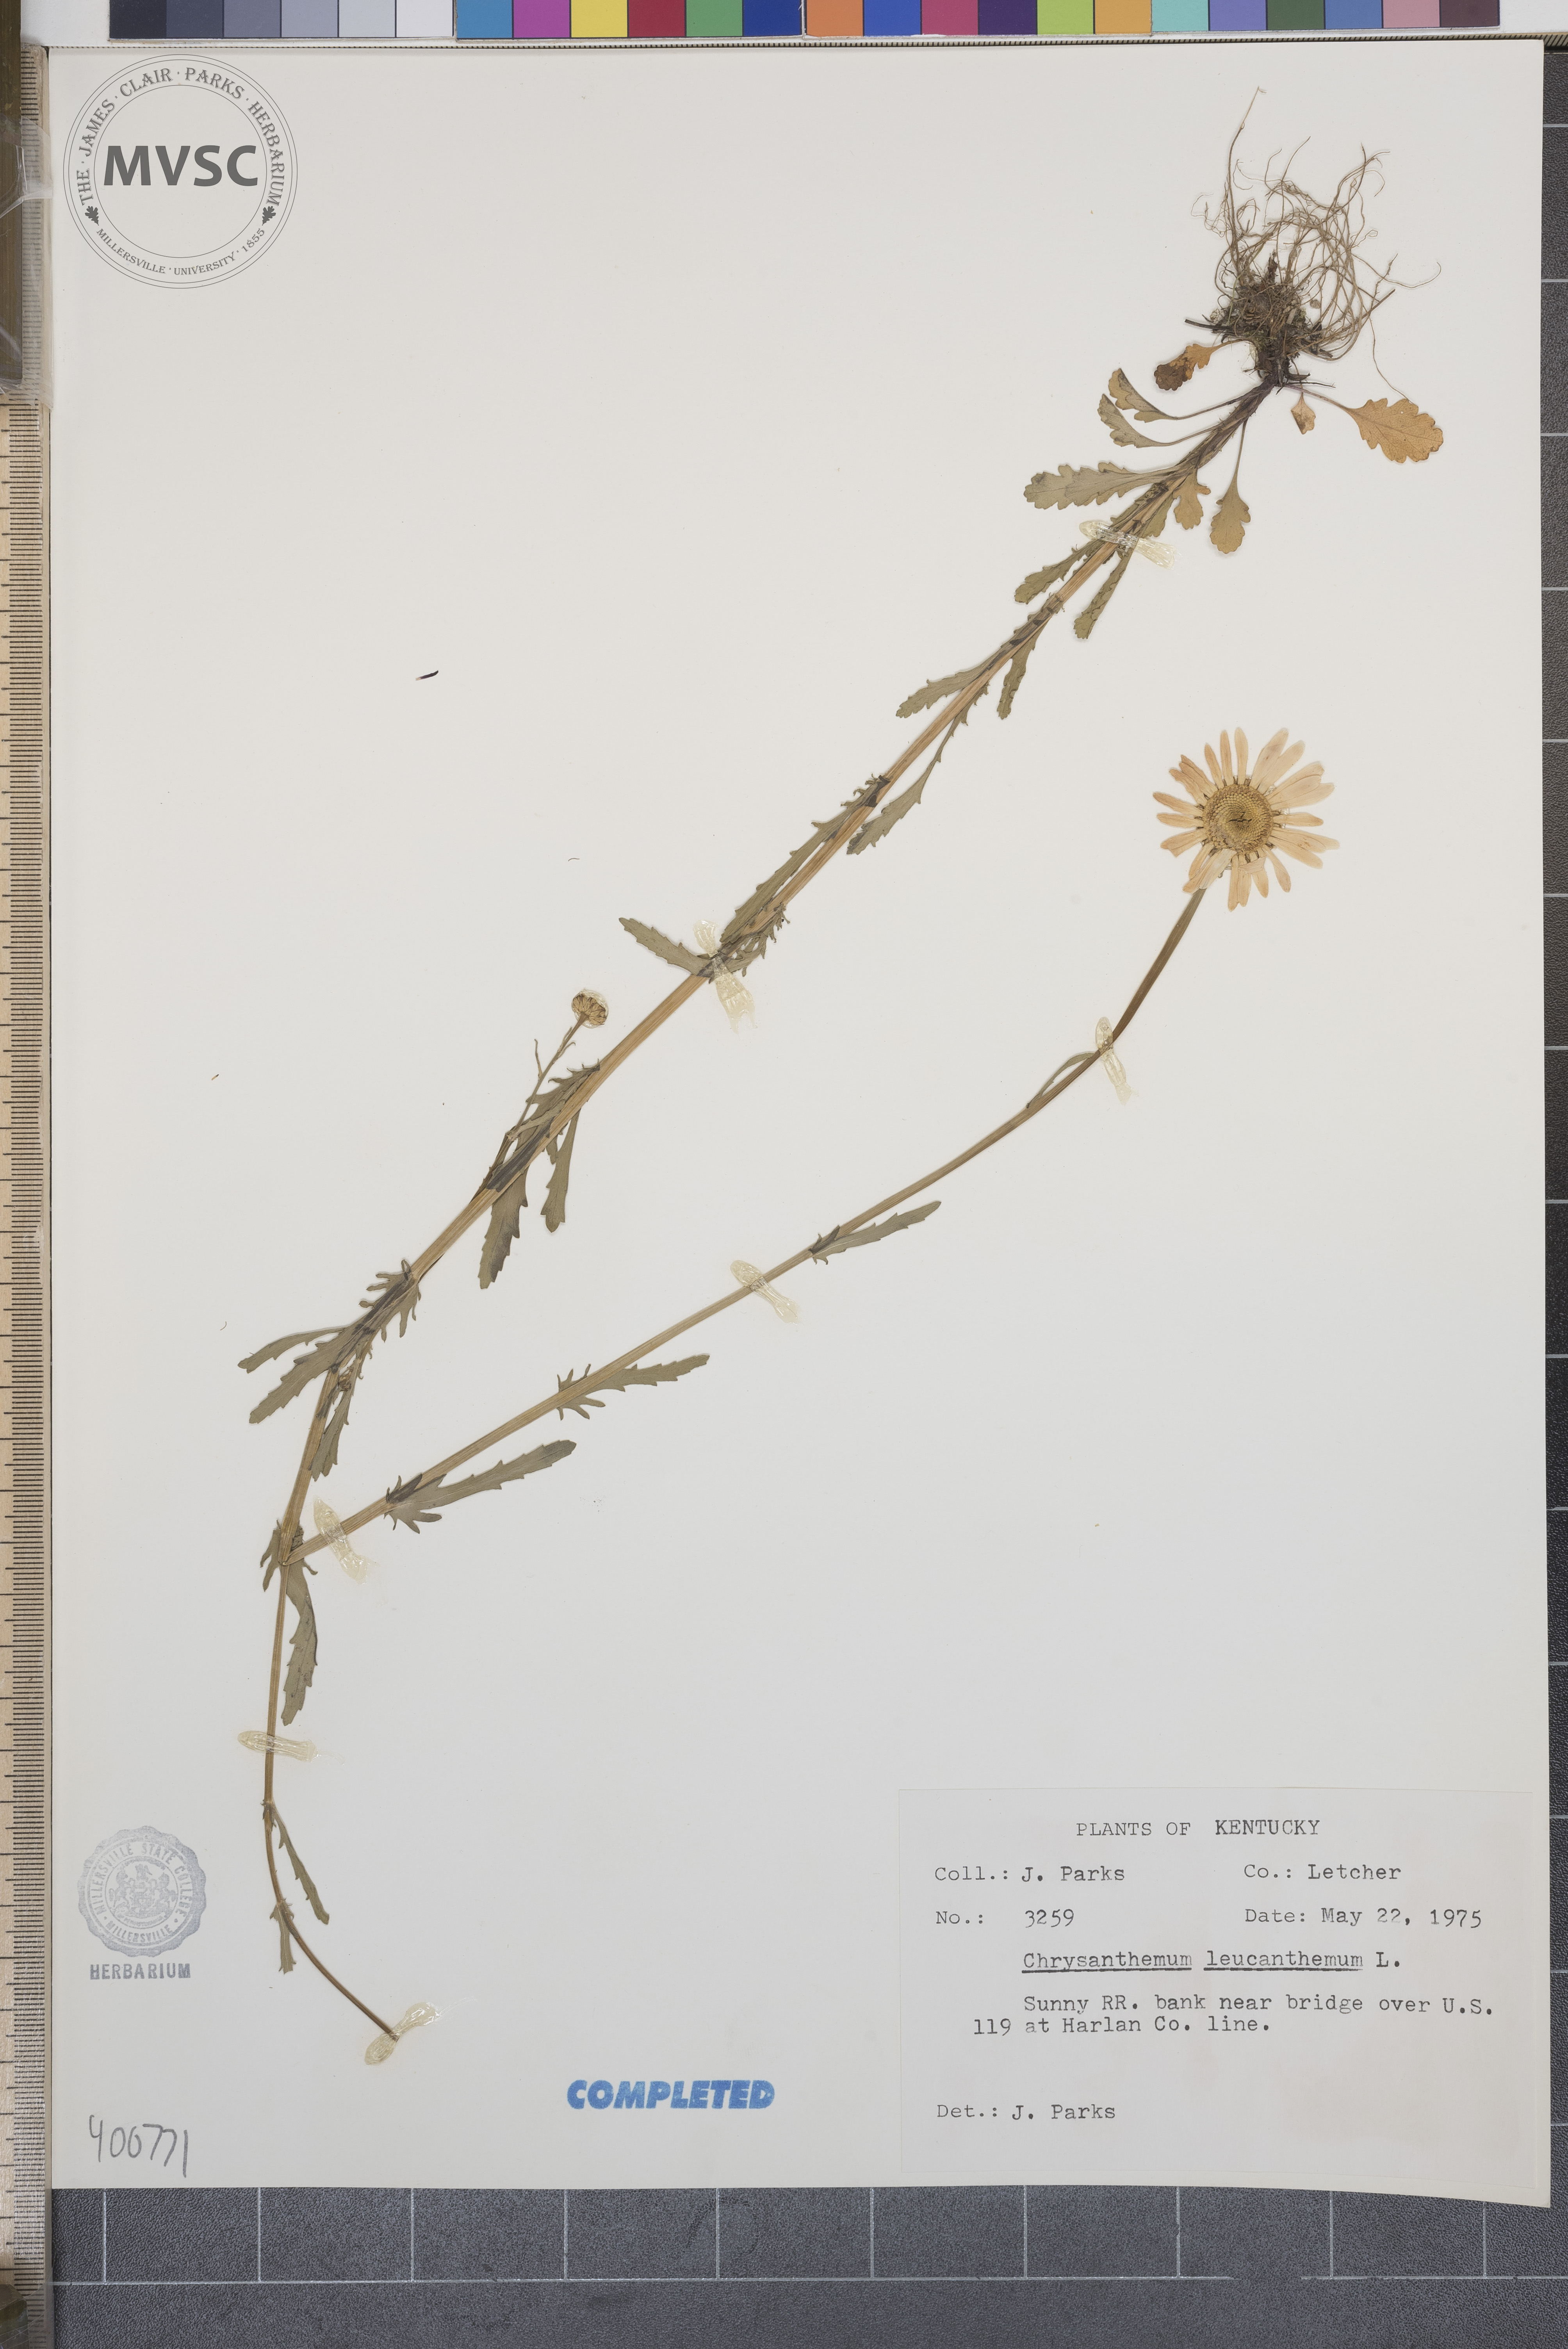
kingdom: Plantae
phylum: Tracheophyta
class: Magnoliopsida
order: Asterales
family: Asteraceae
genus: Leucanthemum
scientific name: Leucanthemum vulgare
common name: ox-eye daisy
